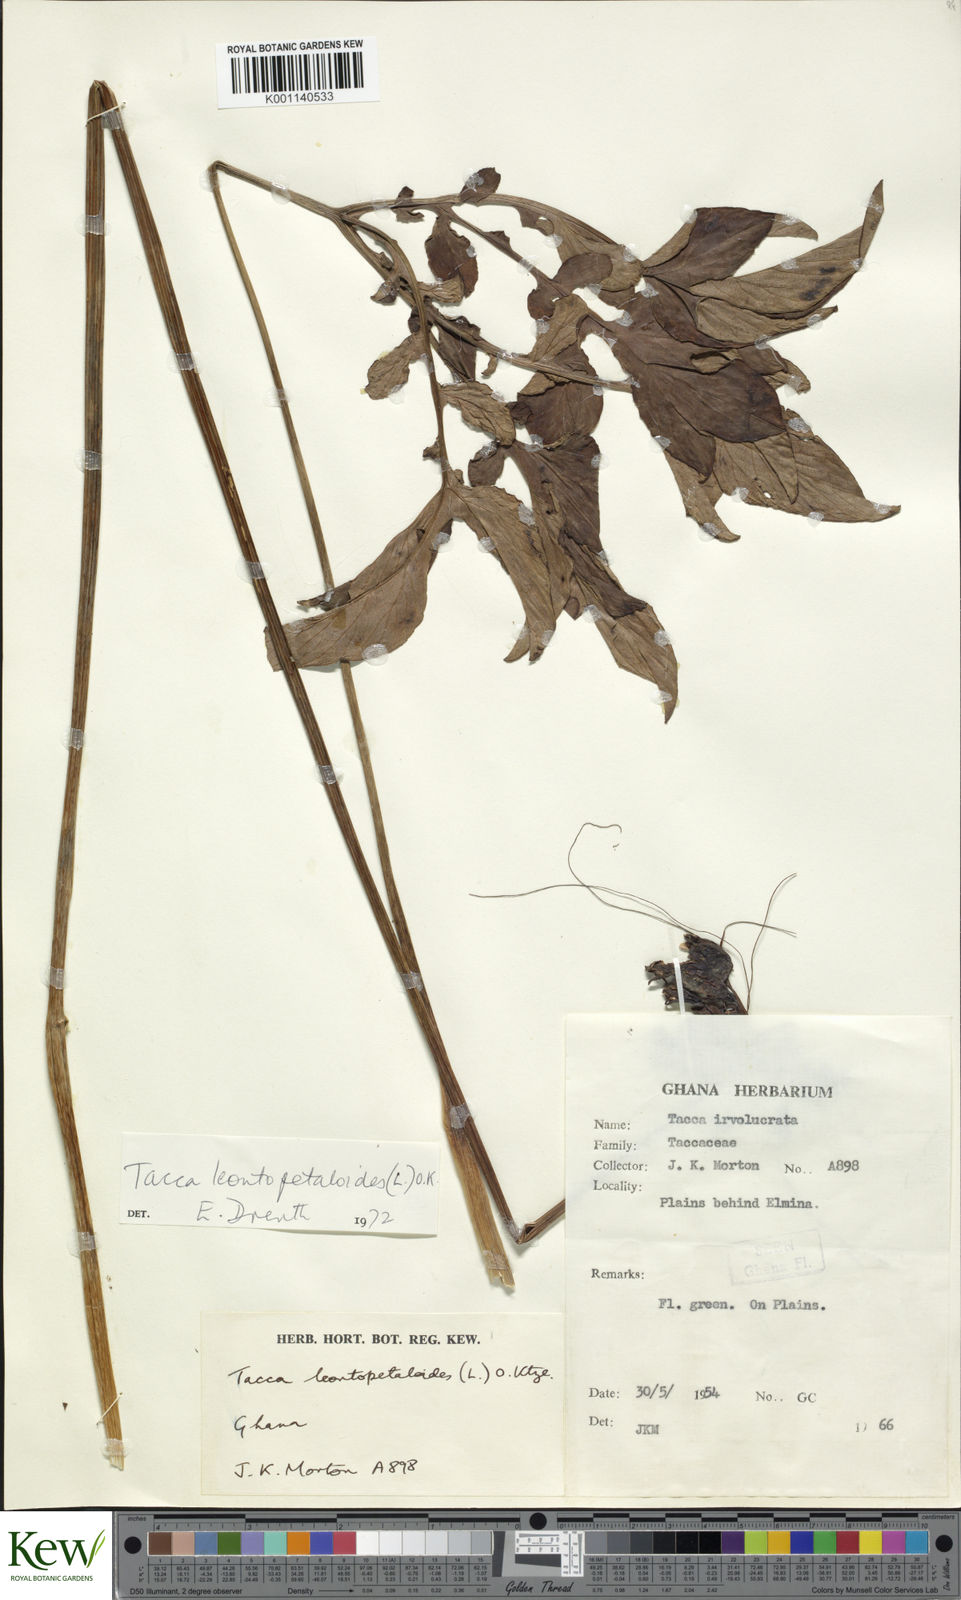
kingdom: Plantae
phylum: Tracheophyta
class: Liliopsida
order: Dioscoreales
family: Dioscoreaceae
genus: Tacca
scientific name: Tacca leontopetaloides
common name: Arrowroot
